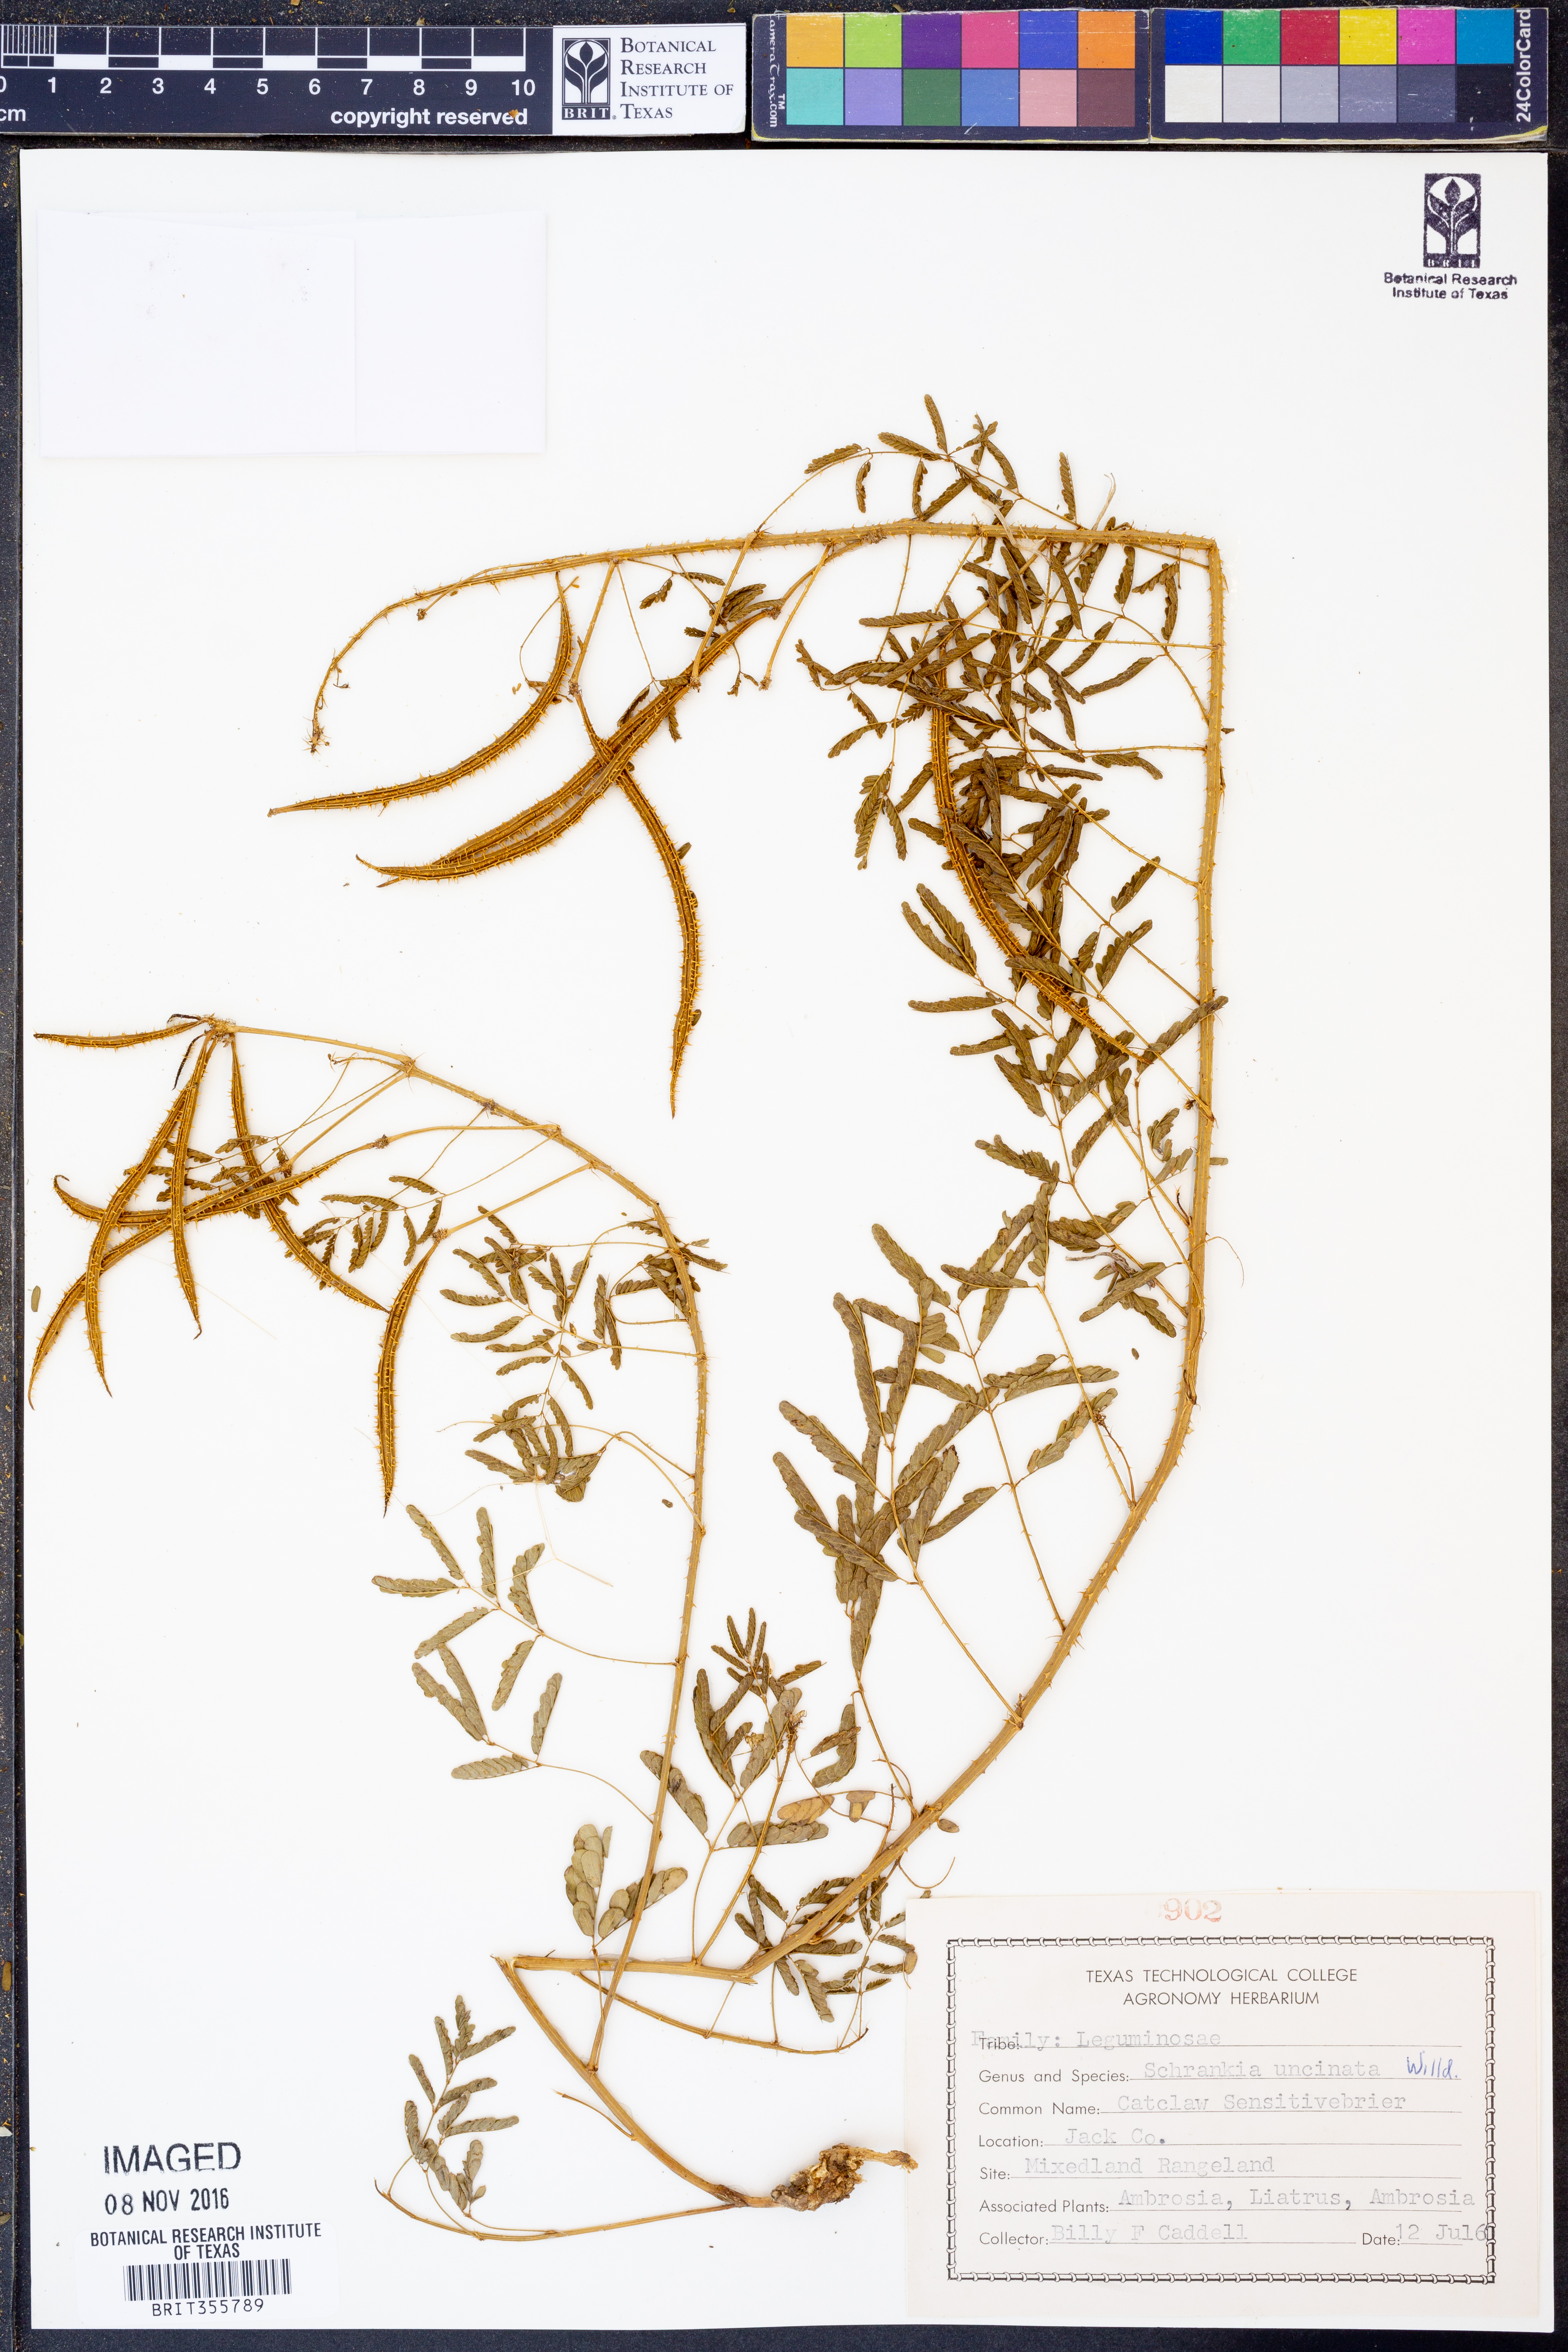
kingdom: Plantae
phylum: Tracheophyta
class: Magnoliopsida
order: Fabales
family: Fabaceae
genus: Mimosa
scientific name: Mimosa quadrivalvis
